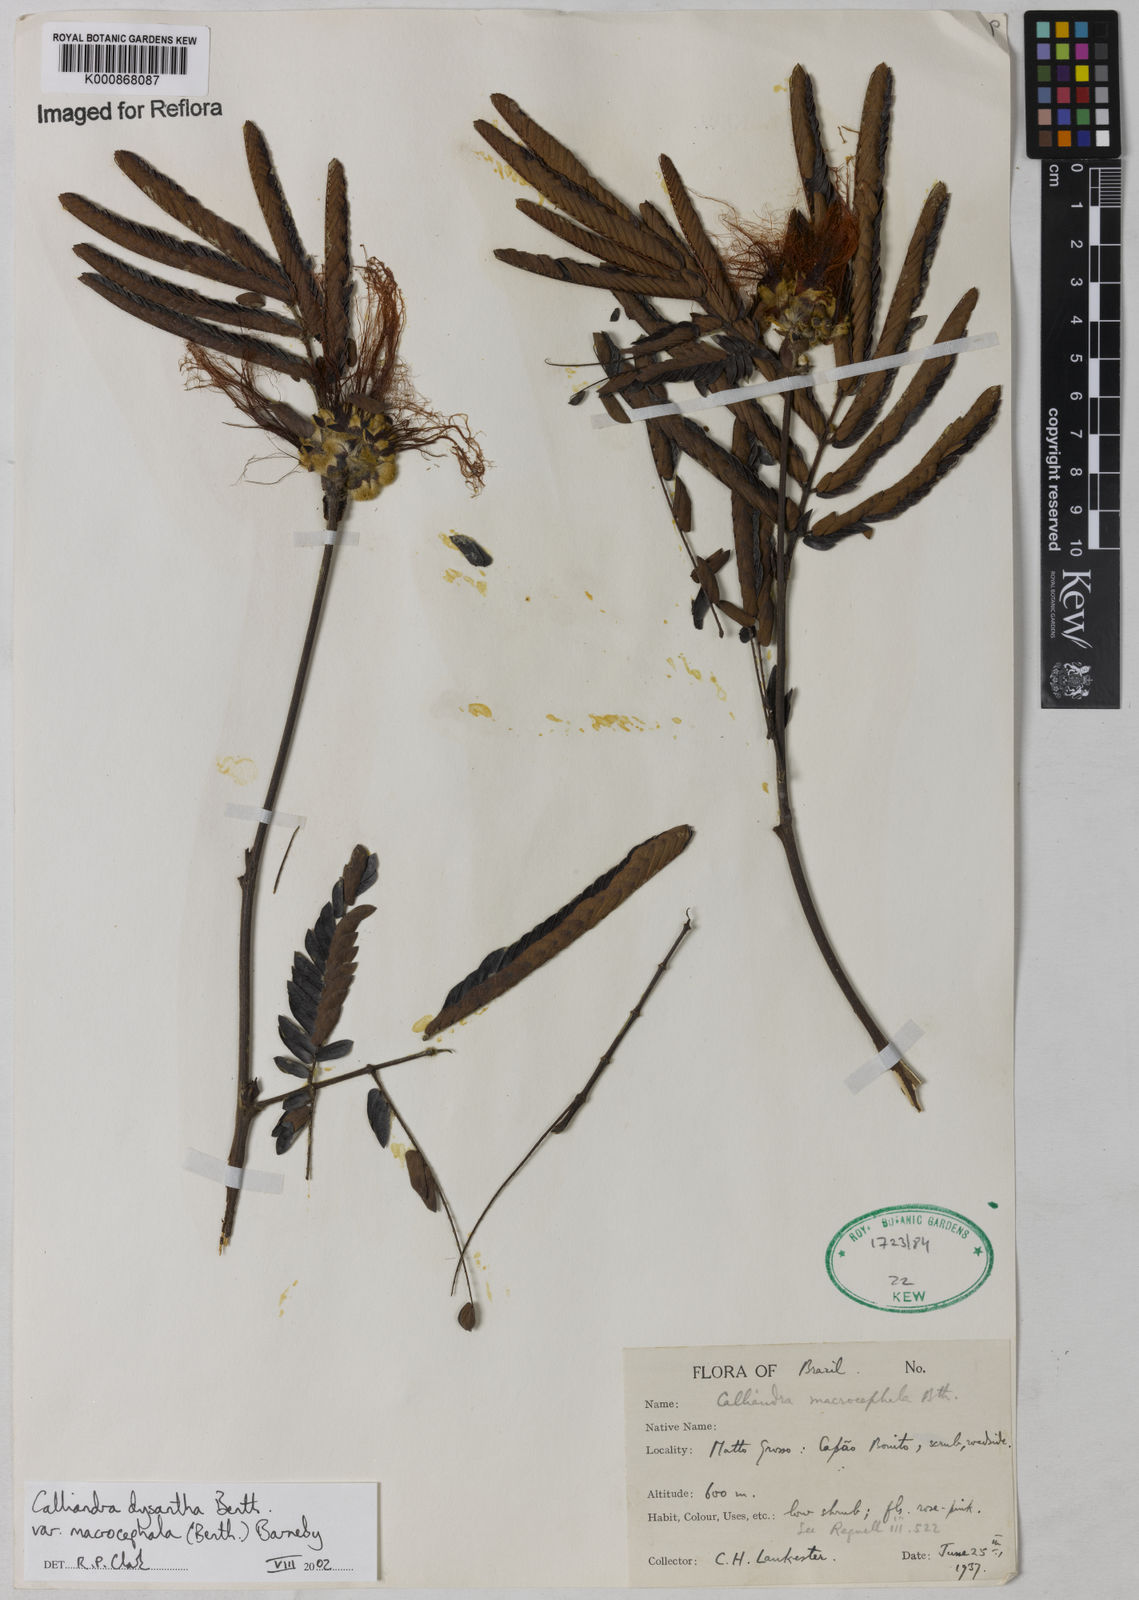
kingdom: Plantae
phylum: Tracheophyta
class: Magnoliopsida
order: Fabales
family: Fabaceae
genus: Calliandra
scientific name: Calliandra dysantha
